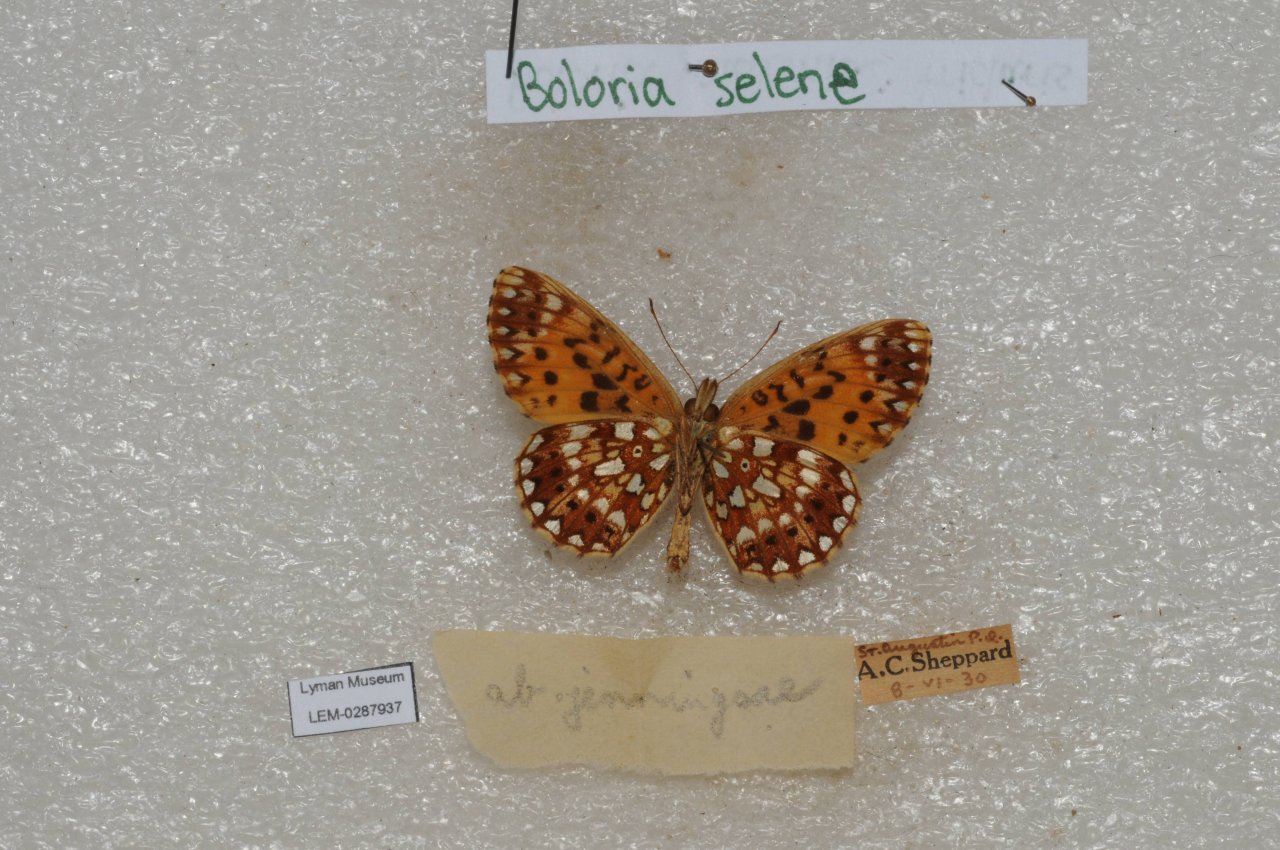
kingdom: Animalia
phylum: Arthropoda
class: Insecta
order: Lepidoptera
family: Nymphalidae
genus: Boloria
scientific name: Boloria selene
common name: Silver-bordered Fritillary
